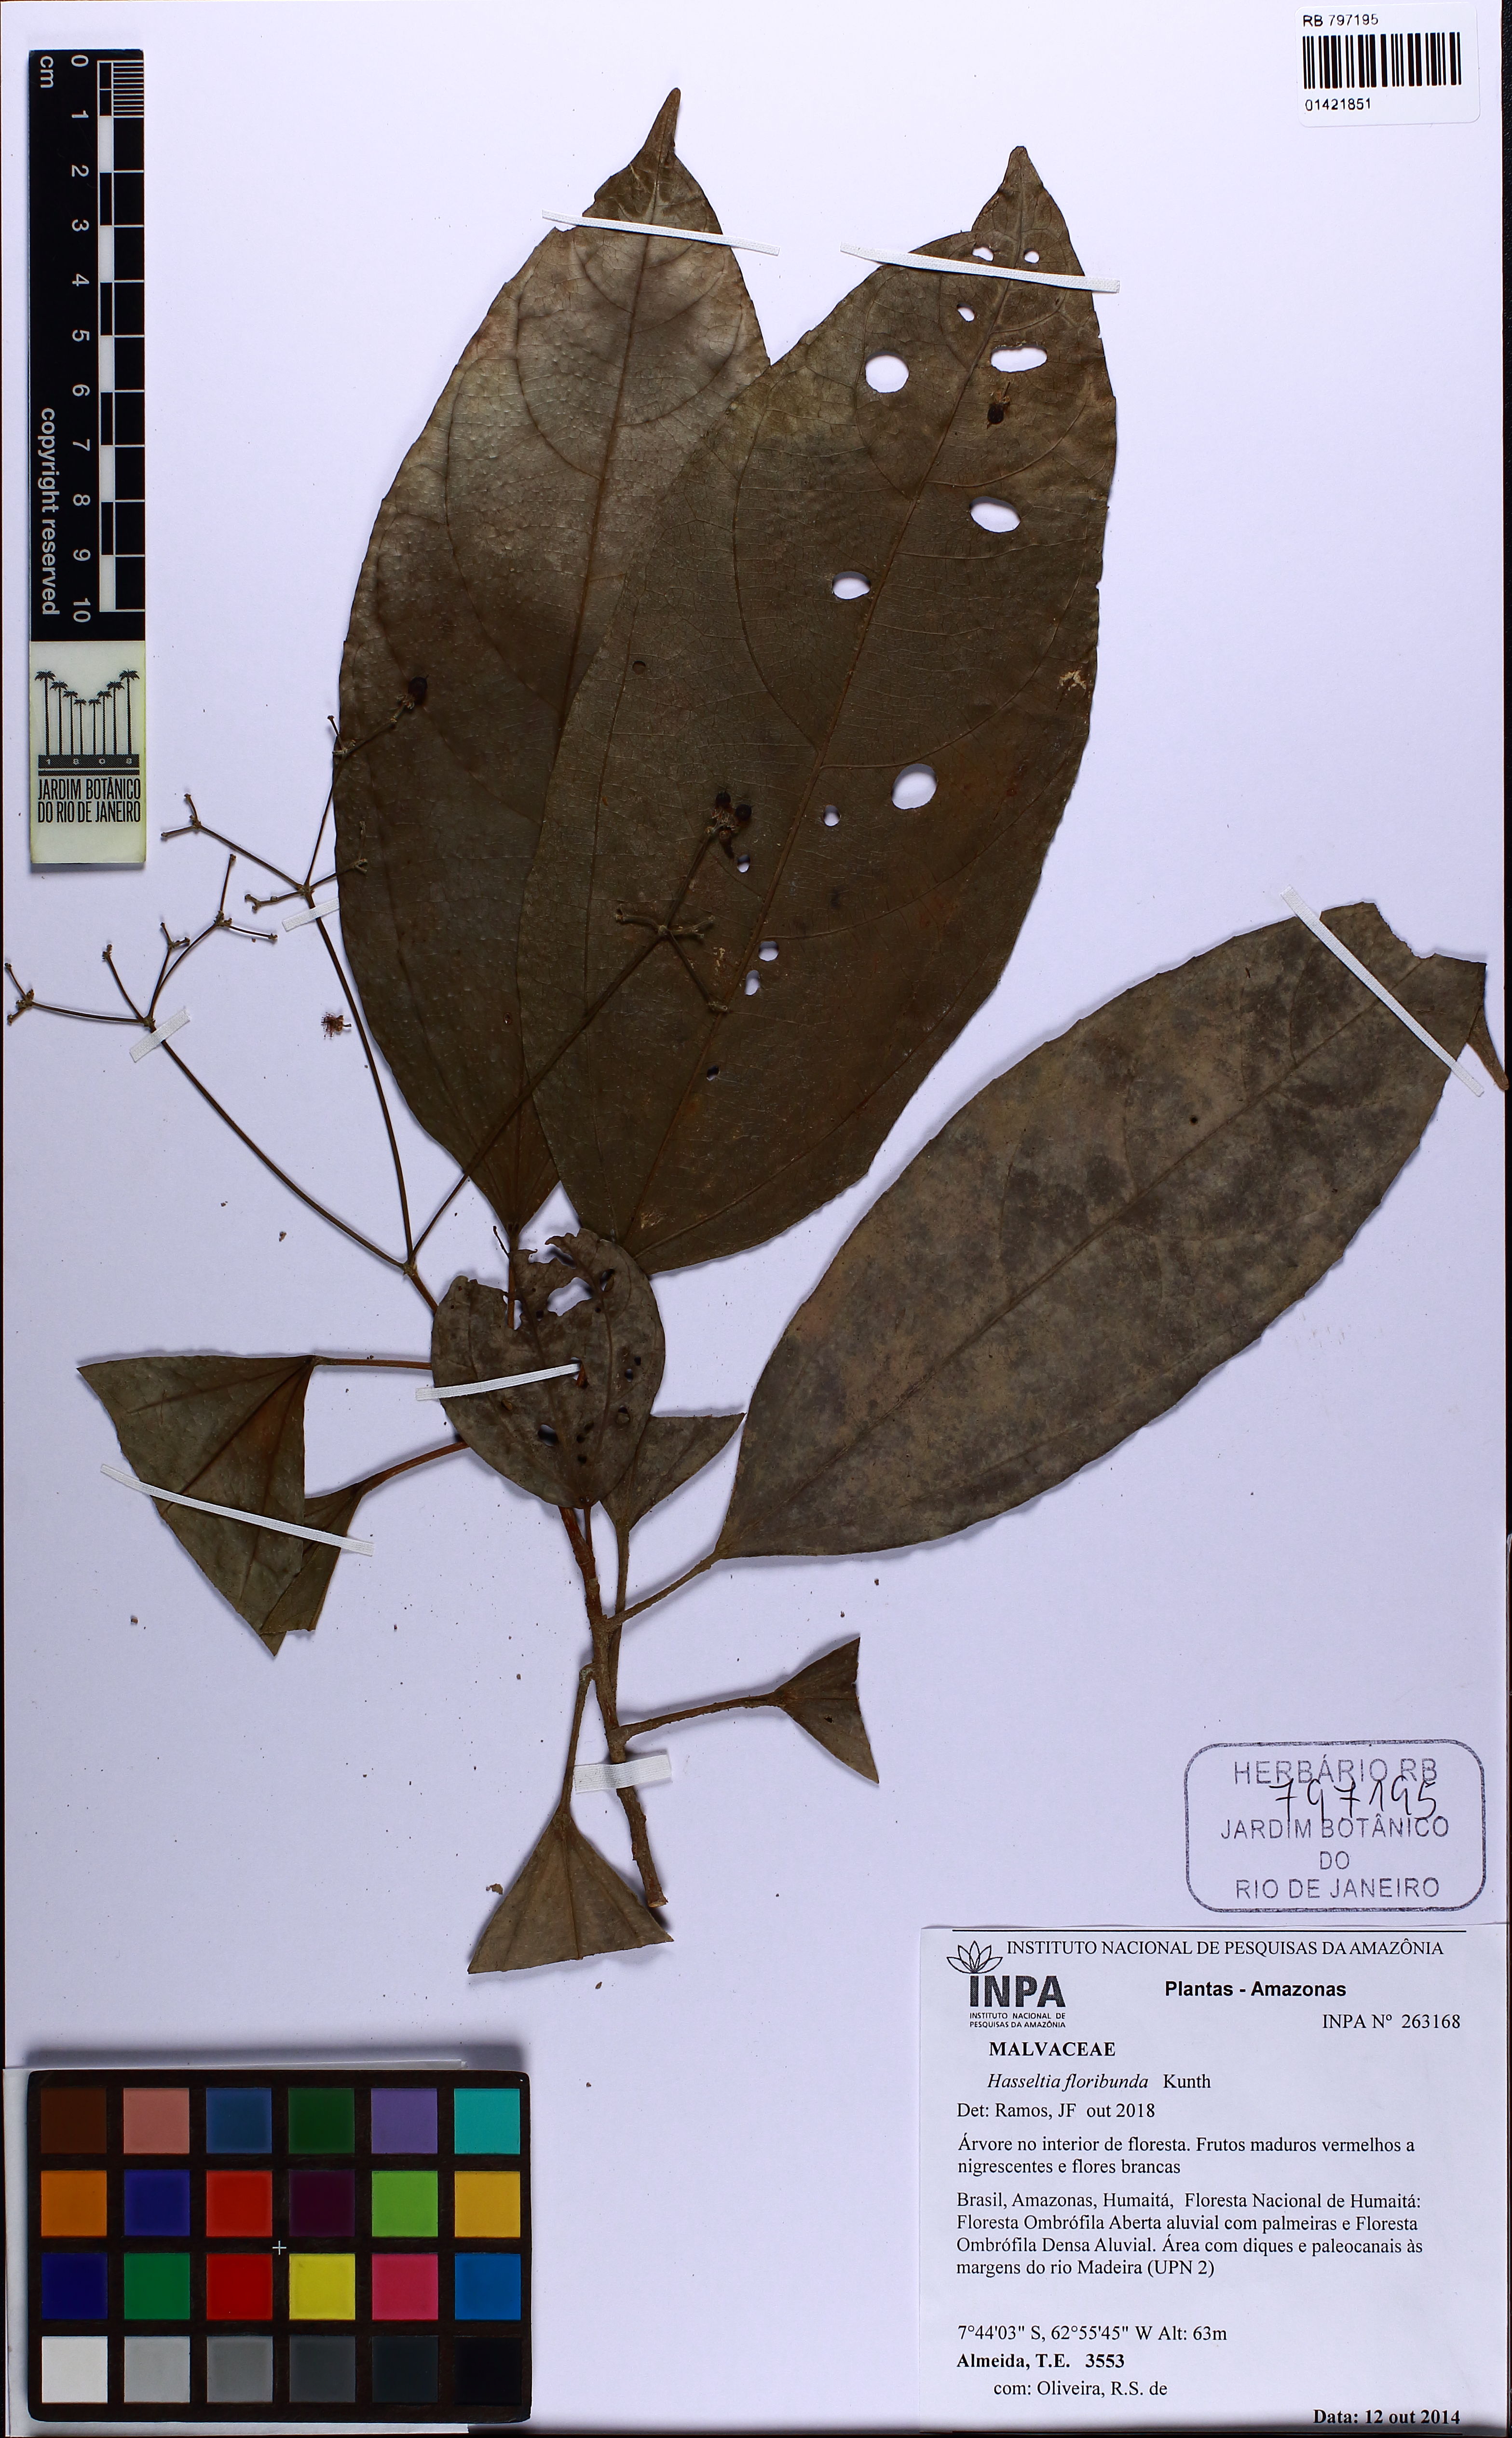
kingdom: Plantae
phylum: Tracheophyta
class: Magnoliopsida
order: Malpighiales
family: Salicaceae
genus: Hasseltia
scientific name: Hasseltia floribunda
